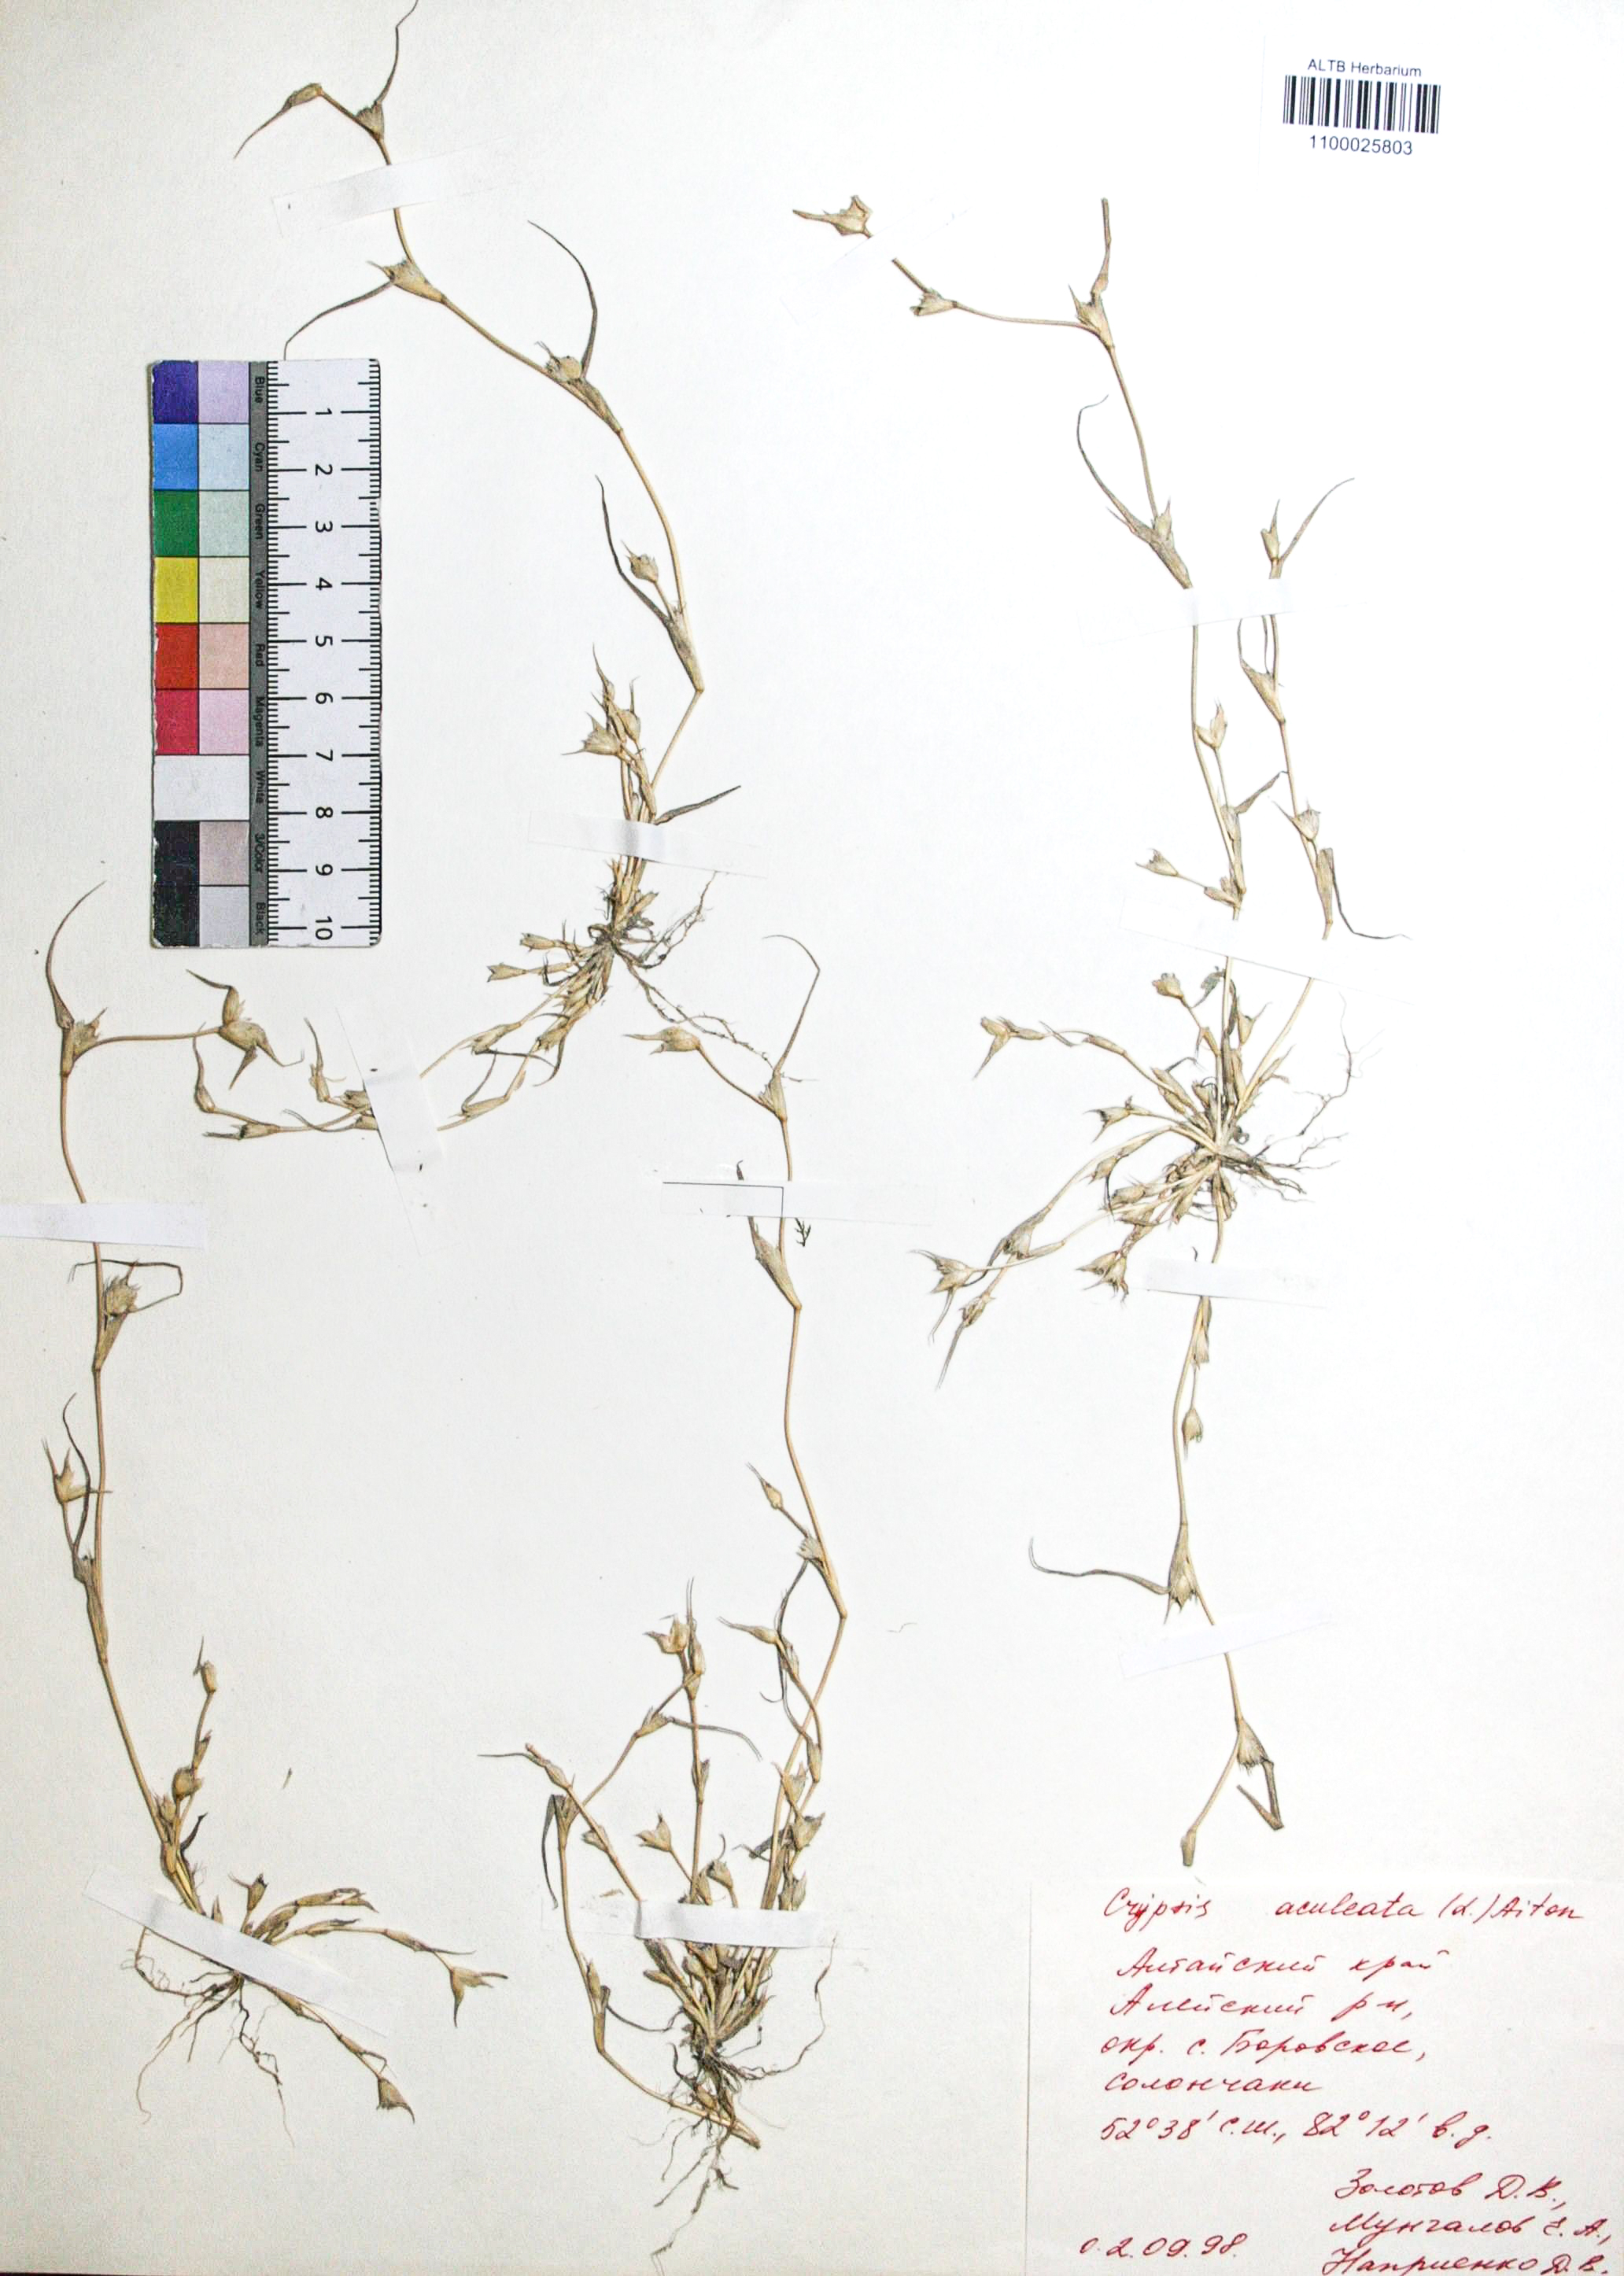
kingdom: Plantae
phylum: Tracheophyta
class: Liliopsida
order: Poales
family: Poaceae
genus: Sporobolus
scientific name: Sporobolus aculeatus
